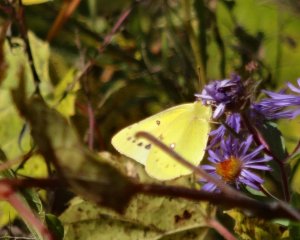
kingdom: Animalia
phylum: Arthropoda
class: Insecta
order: Lepidoptera
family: Pieridae
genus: Colias
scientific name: Colias philodice
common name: Clouded Sulphur
